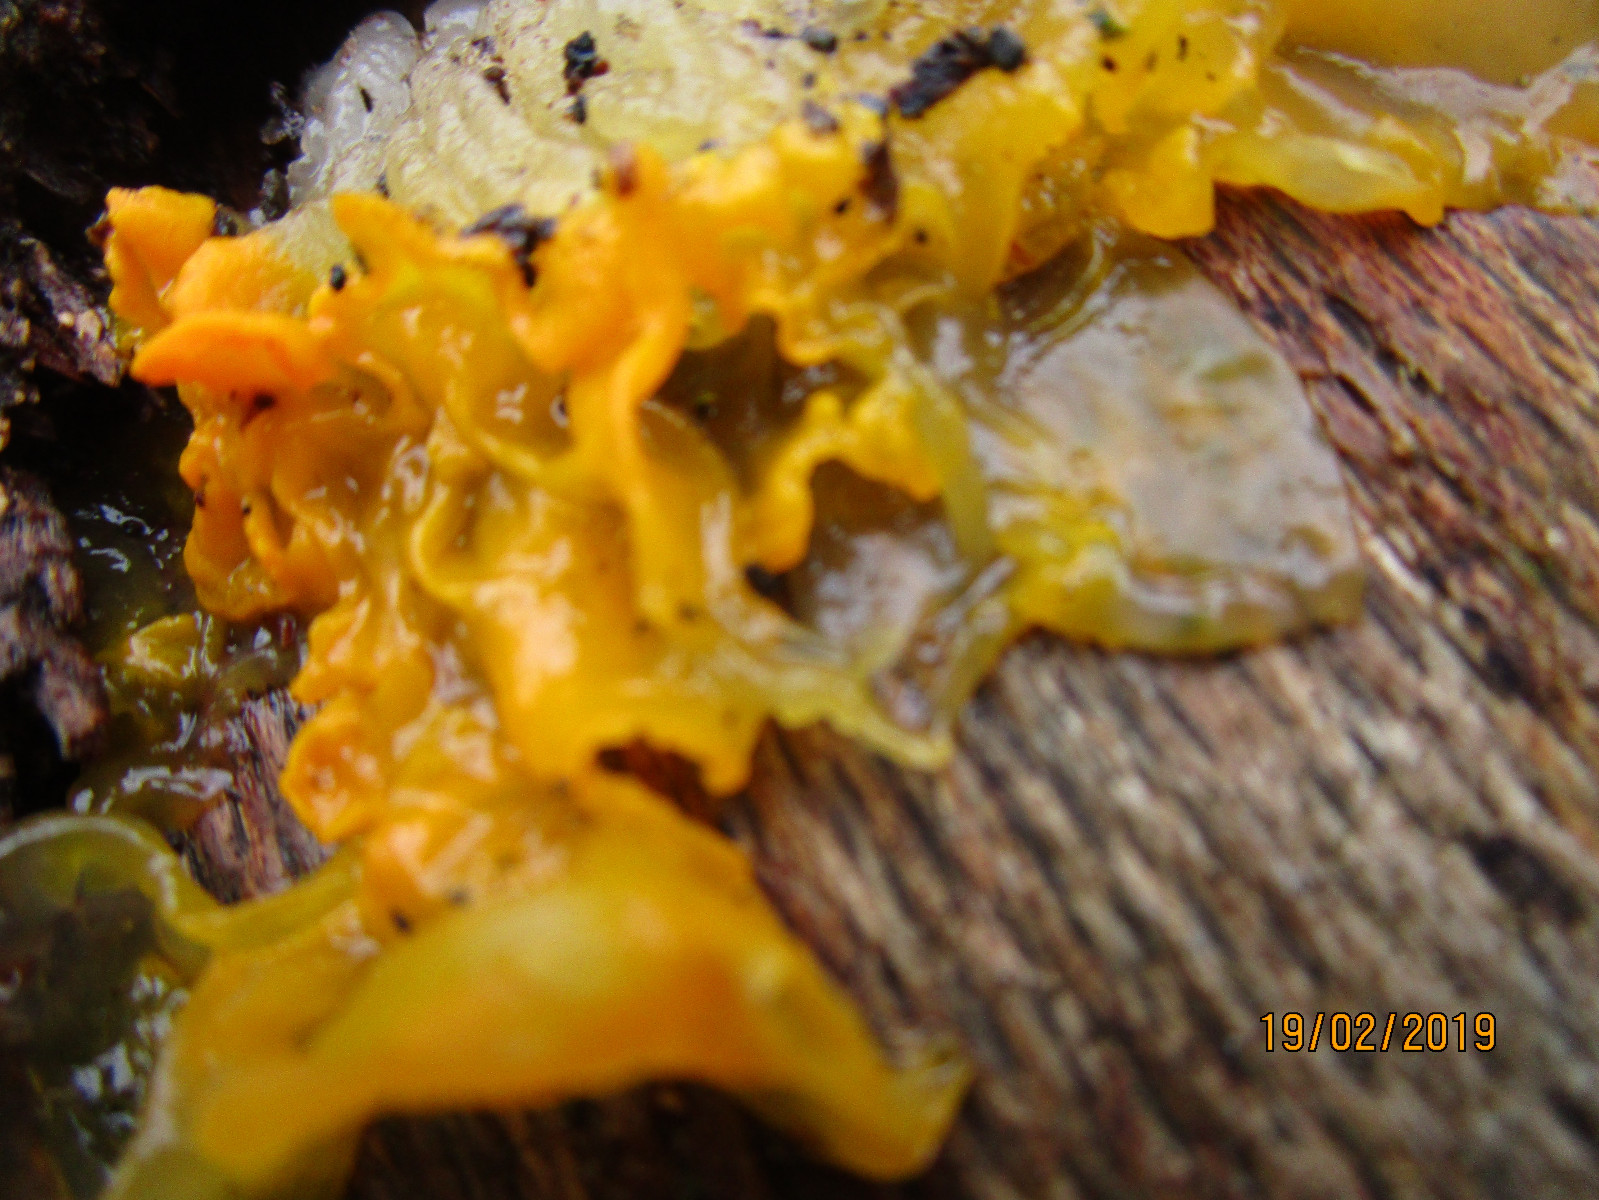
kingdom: Fungi
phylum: Basidiomycota
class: Tremellomycetes
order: Tremellales
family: Tremellaceae
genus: Tremella
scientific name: Tremella mesenterica
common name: gul bævresvamp
